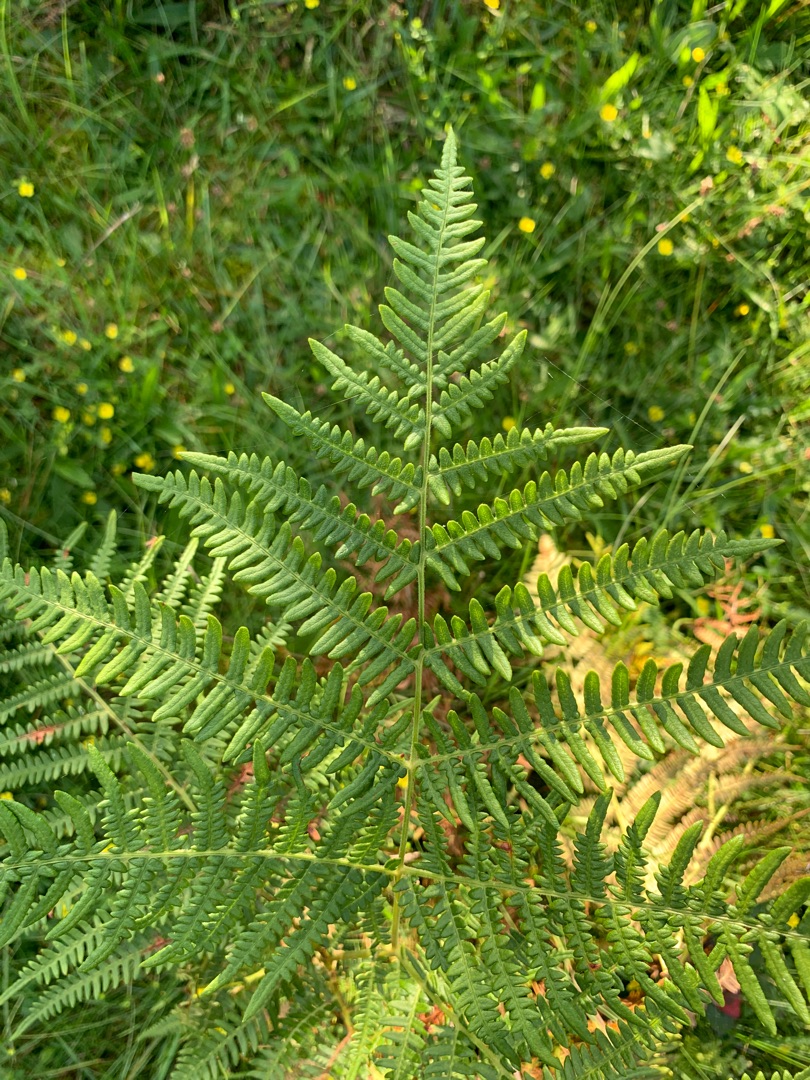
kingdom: Plantae
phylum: Tracheophyta
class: Polypodiopsida
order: Polypodiales
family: Dennstaedtiaceae
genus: Pteridium
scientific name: Pteridium aquilinum
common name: Ørnebregne
